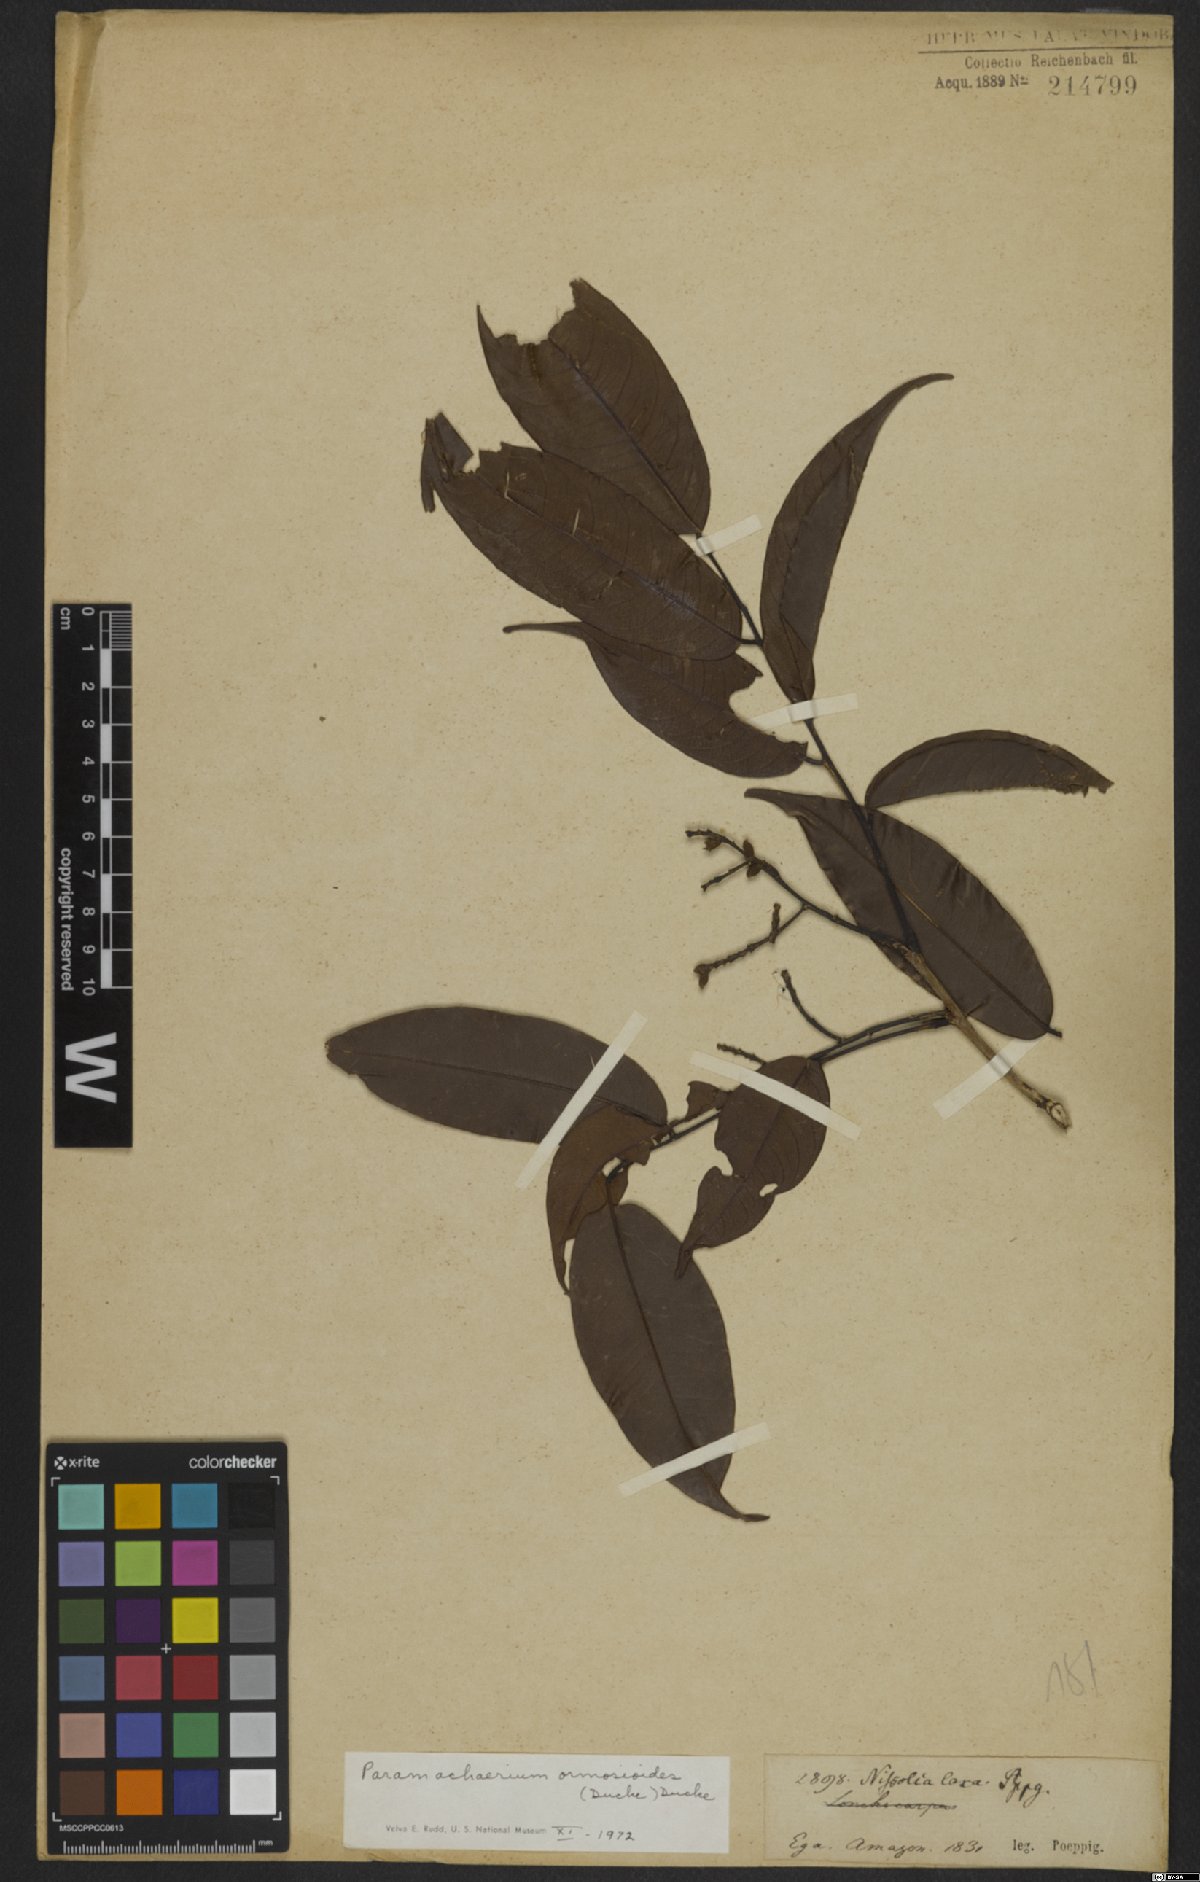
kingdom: Plantae
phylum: Tracheophyta
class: Magnoliopsida
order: Fabales
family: Fabaceae
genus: Paramachaerium
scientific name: Paramachaerium ormosioides
